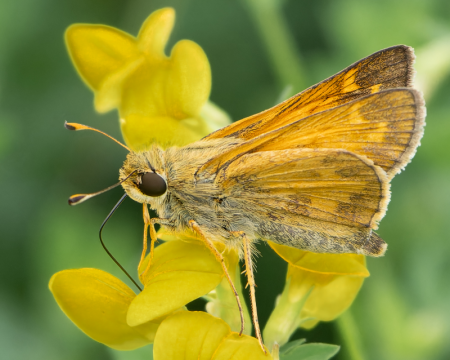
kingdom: Animalia
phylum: Arthropoda
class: Insecta
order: Lepidoptera
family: Hesperiidae
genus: Atalopedes
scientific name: Atalopedes campestris
